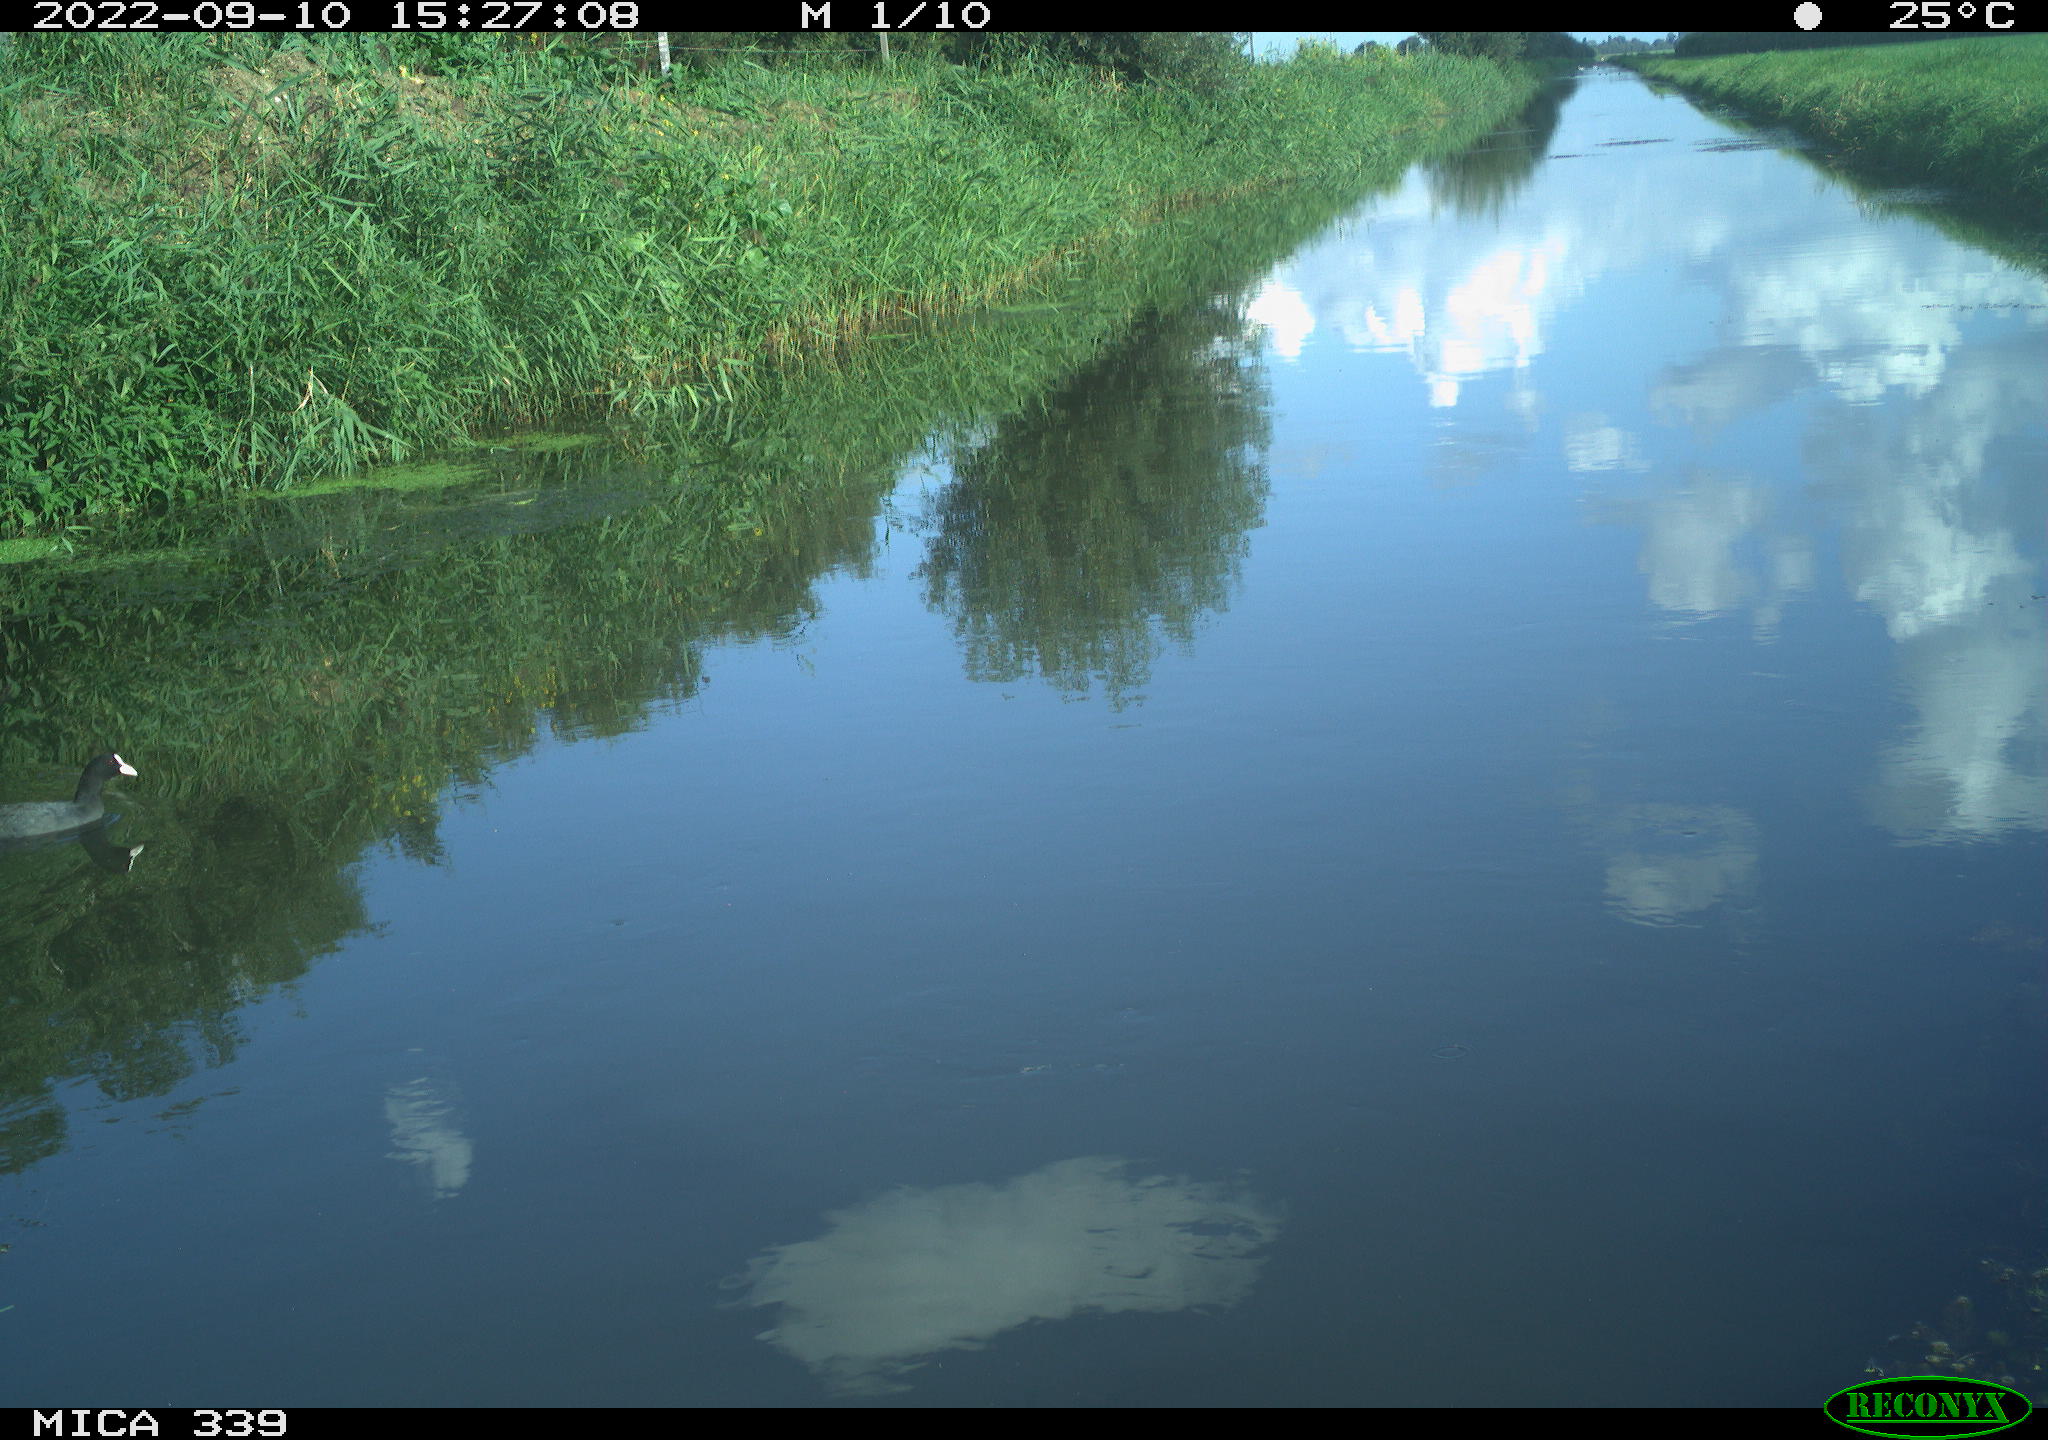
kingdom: Animalia
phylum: Chordata
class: Aves
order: Gruiformes
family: Rallidae
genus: Fulica
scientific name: Fulica atra
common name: Eurasian coot
